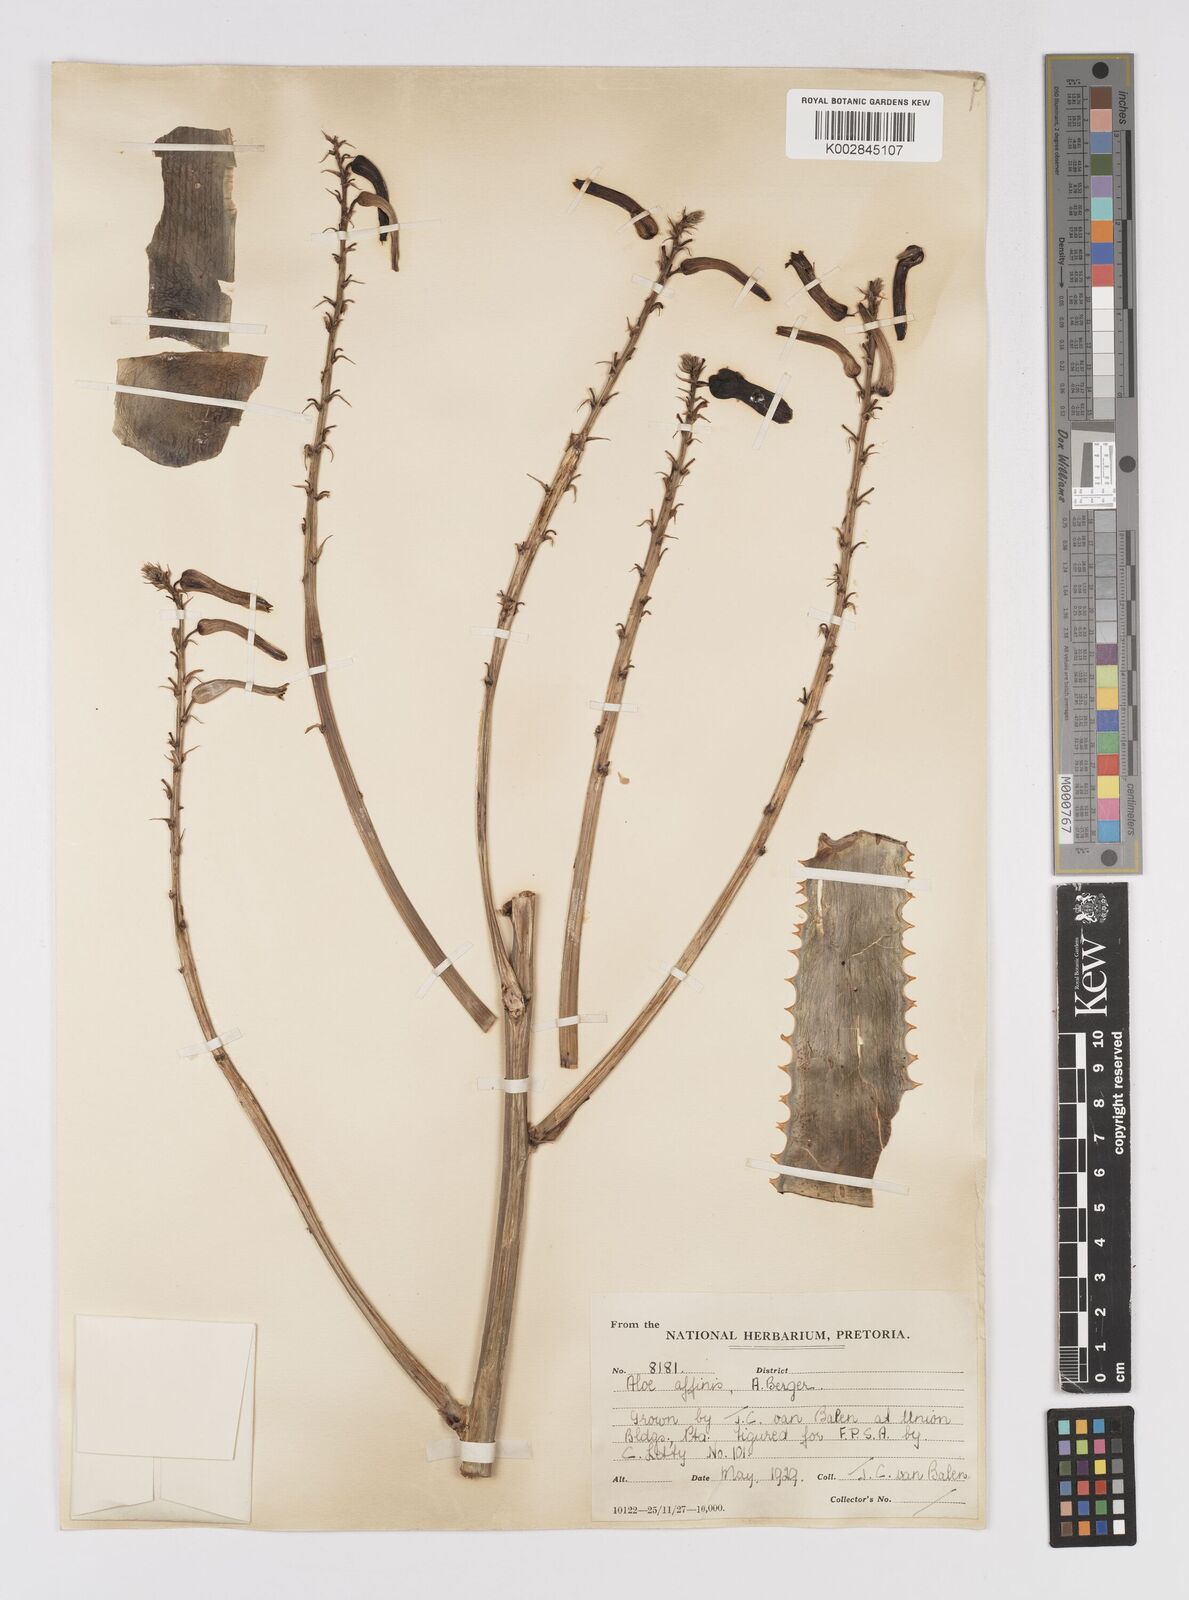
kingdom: Plantae
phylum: Tracheophyta
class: Liliopsida
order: Asparagales
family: Asphodelaceae
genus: Aloe
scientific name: Aloe affinis
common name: Spotted aloe
